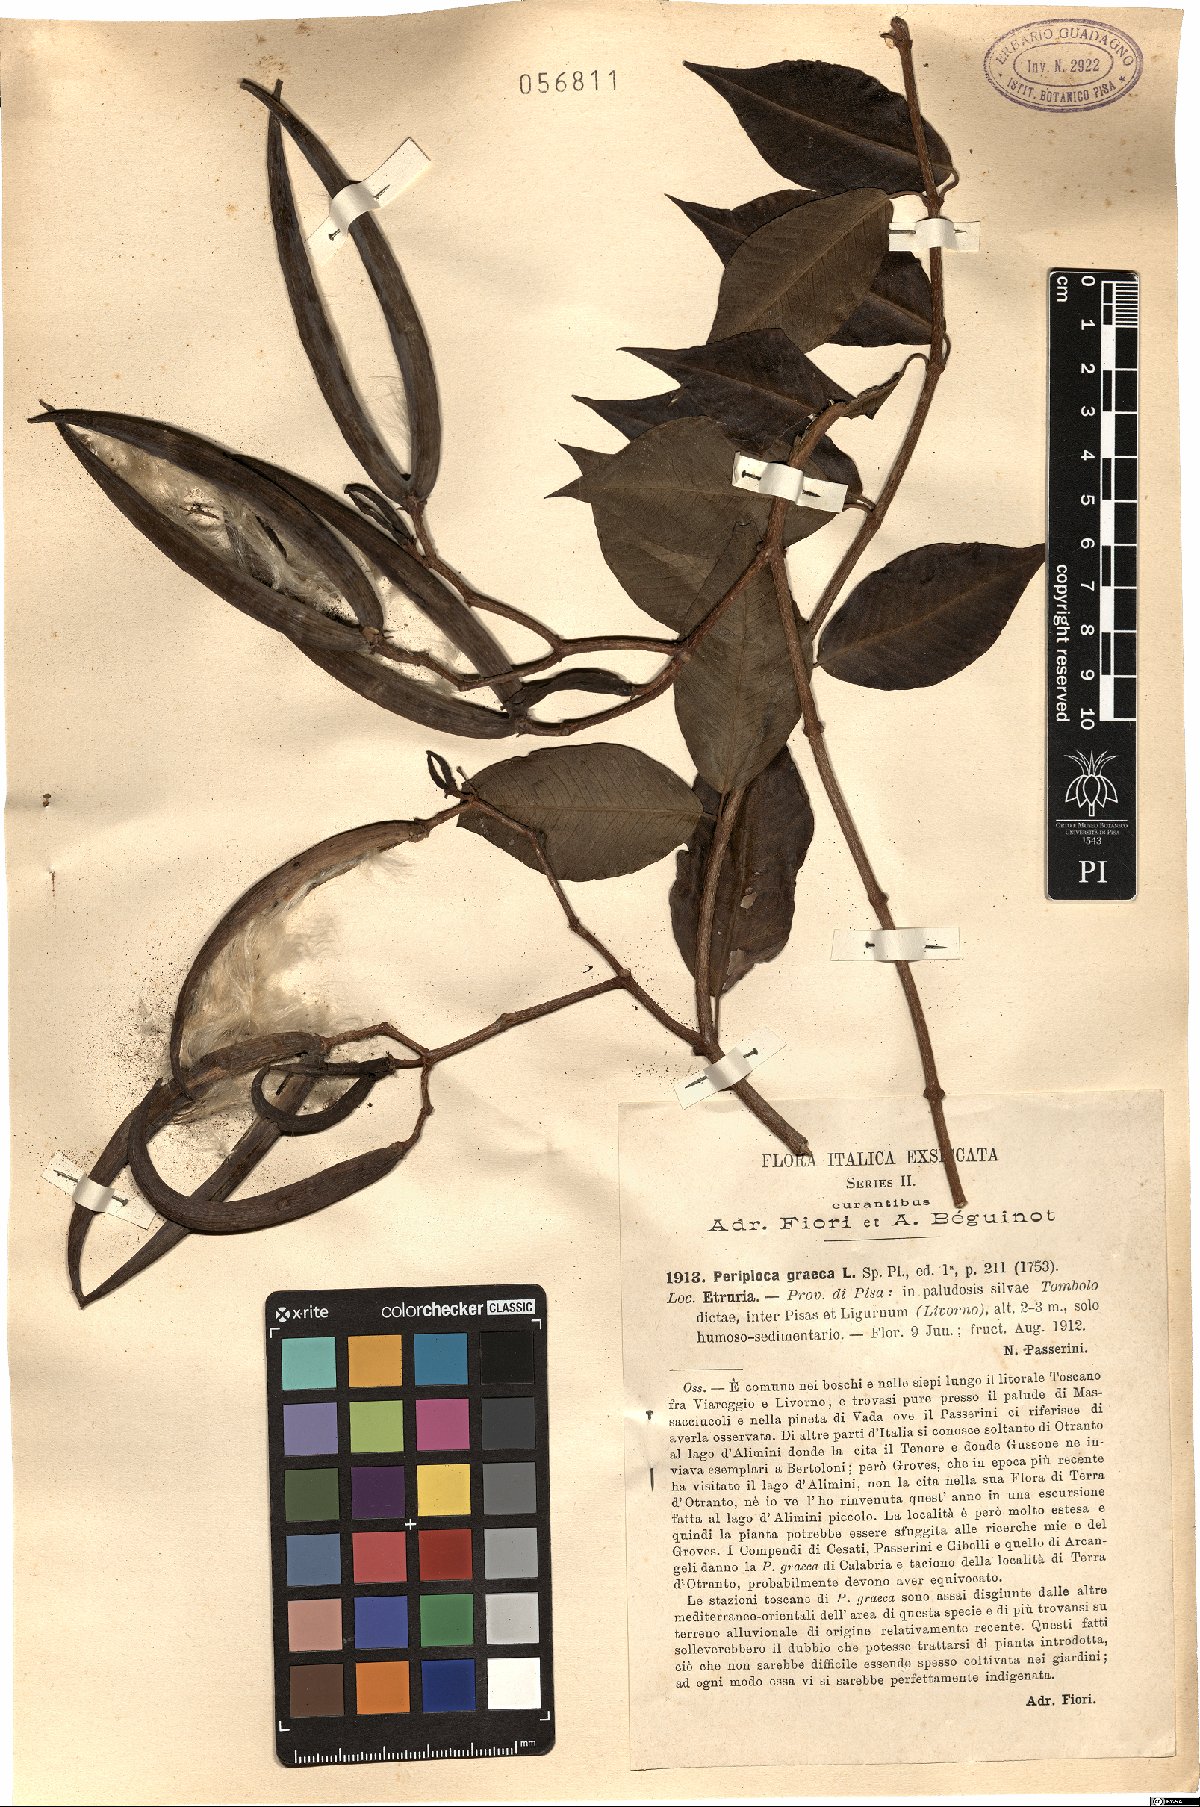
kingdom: Plantae
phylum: Tracheophyta
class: Magnoliopsida
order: Gentianales
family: Apocynaceae
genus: Periploca
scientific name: Periploca graeca
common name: Silkvine
